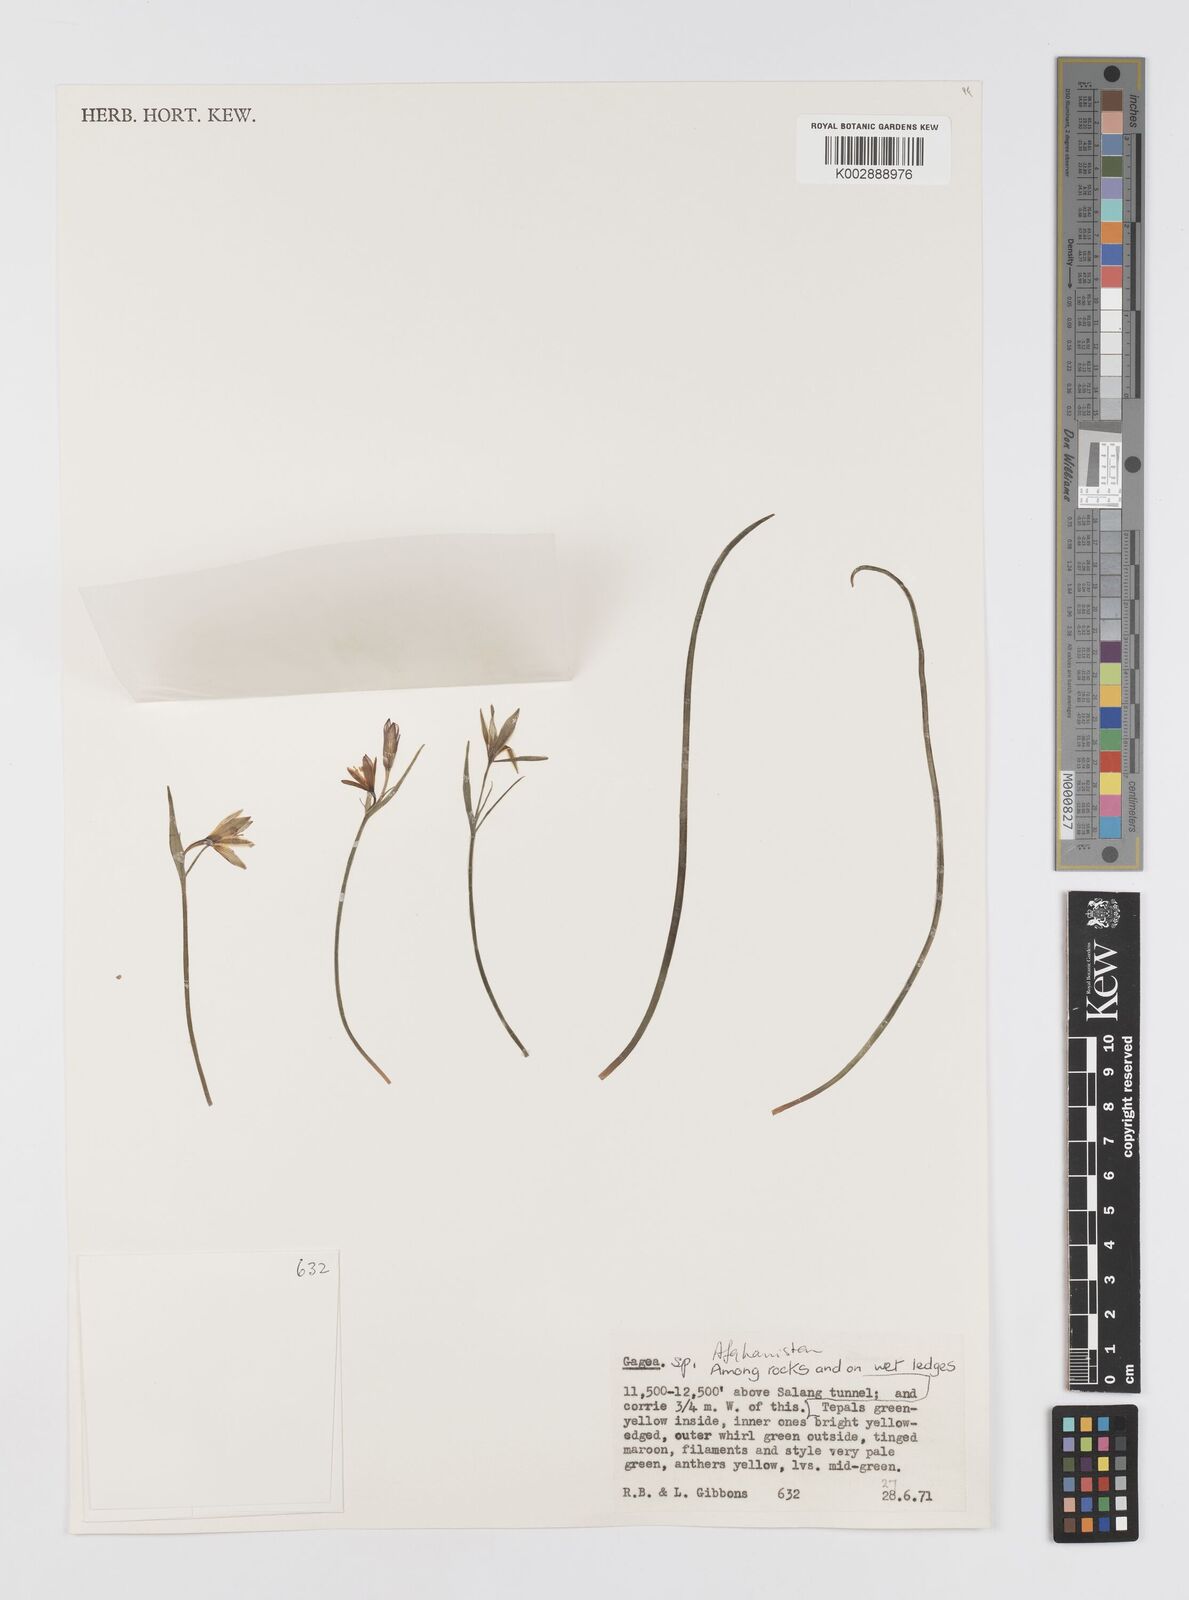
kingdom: Plantae
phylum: Tracheophyta
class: Liliopsida
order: Liliales
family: Liliaceae
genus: Gagea
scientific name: Gagea
